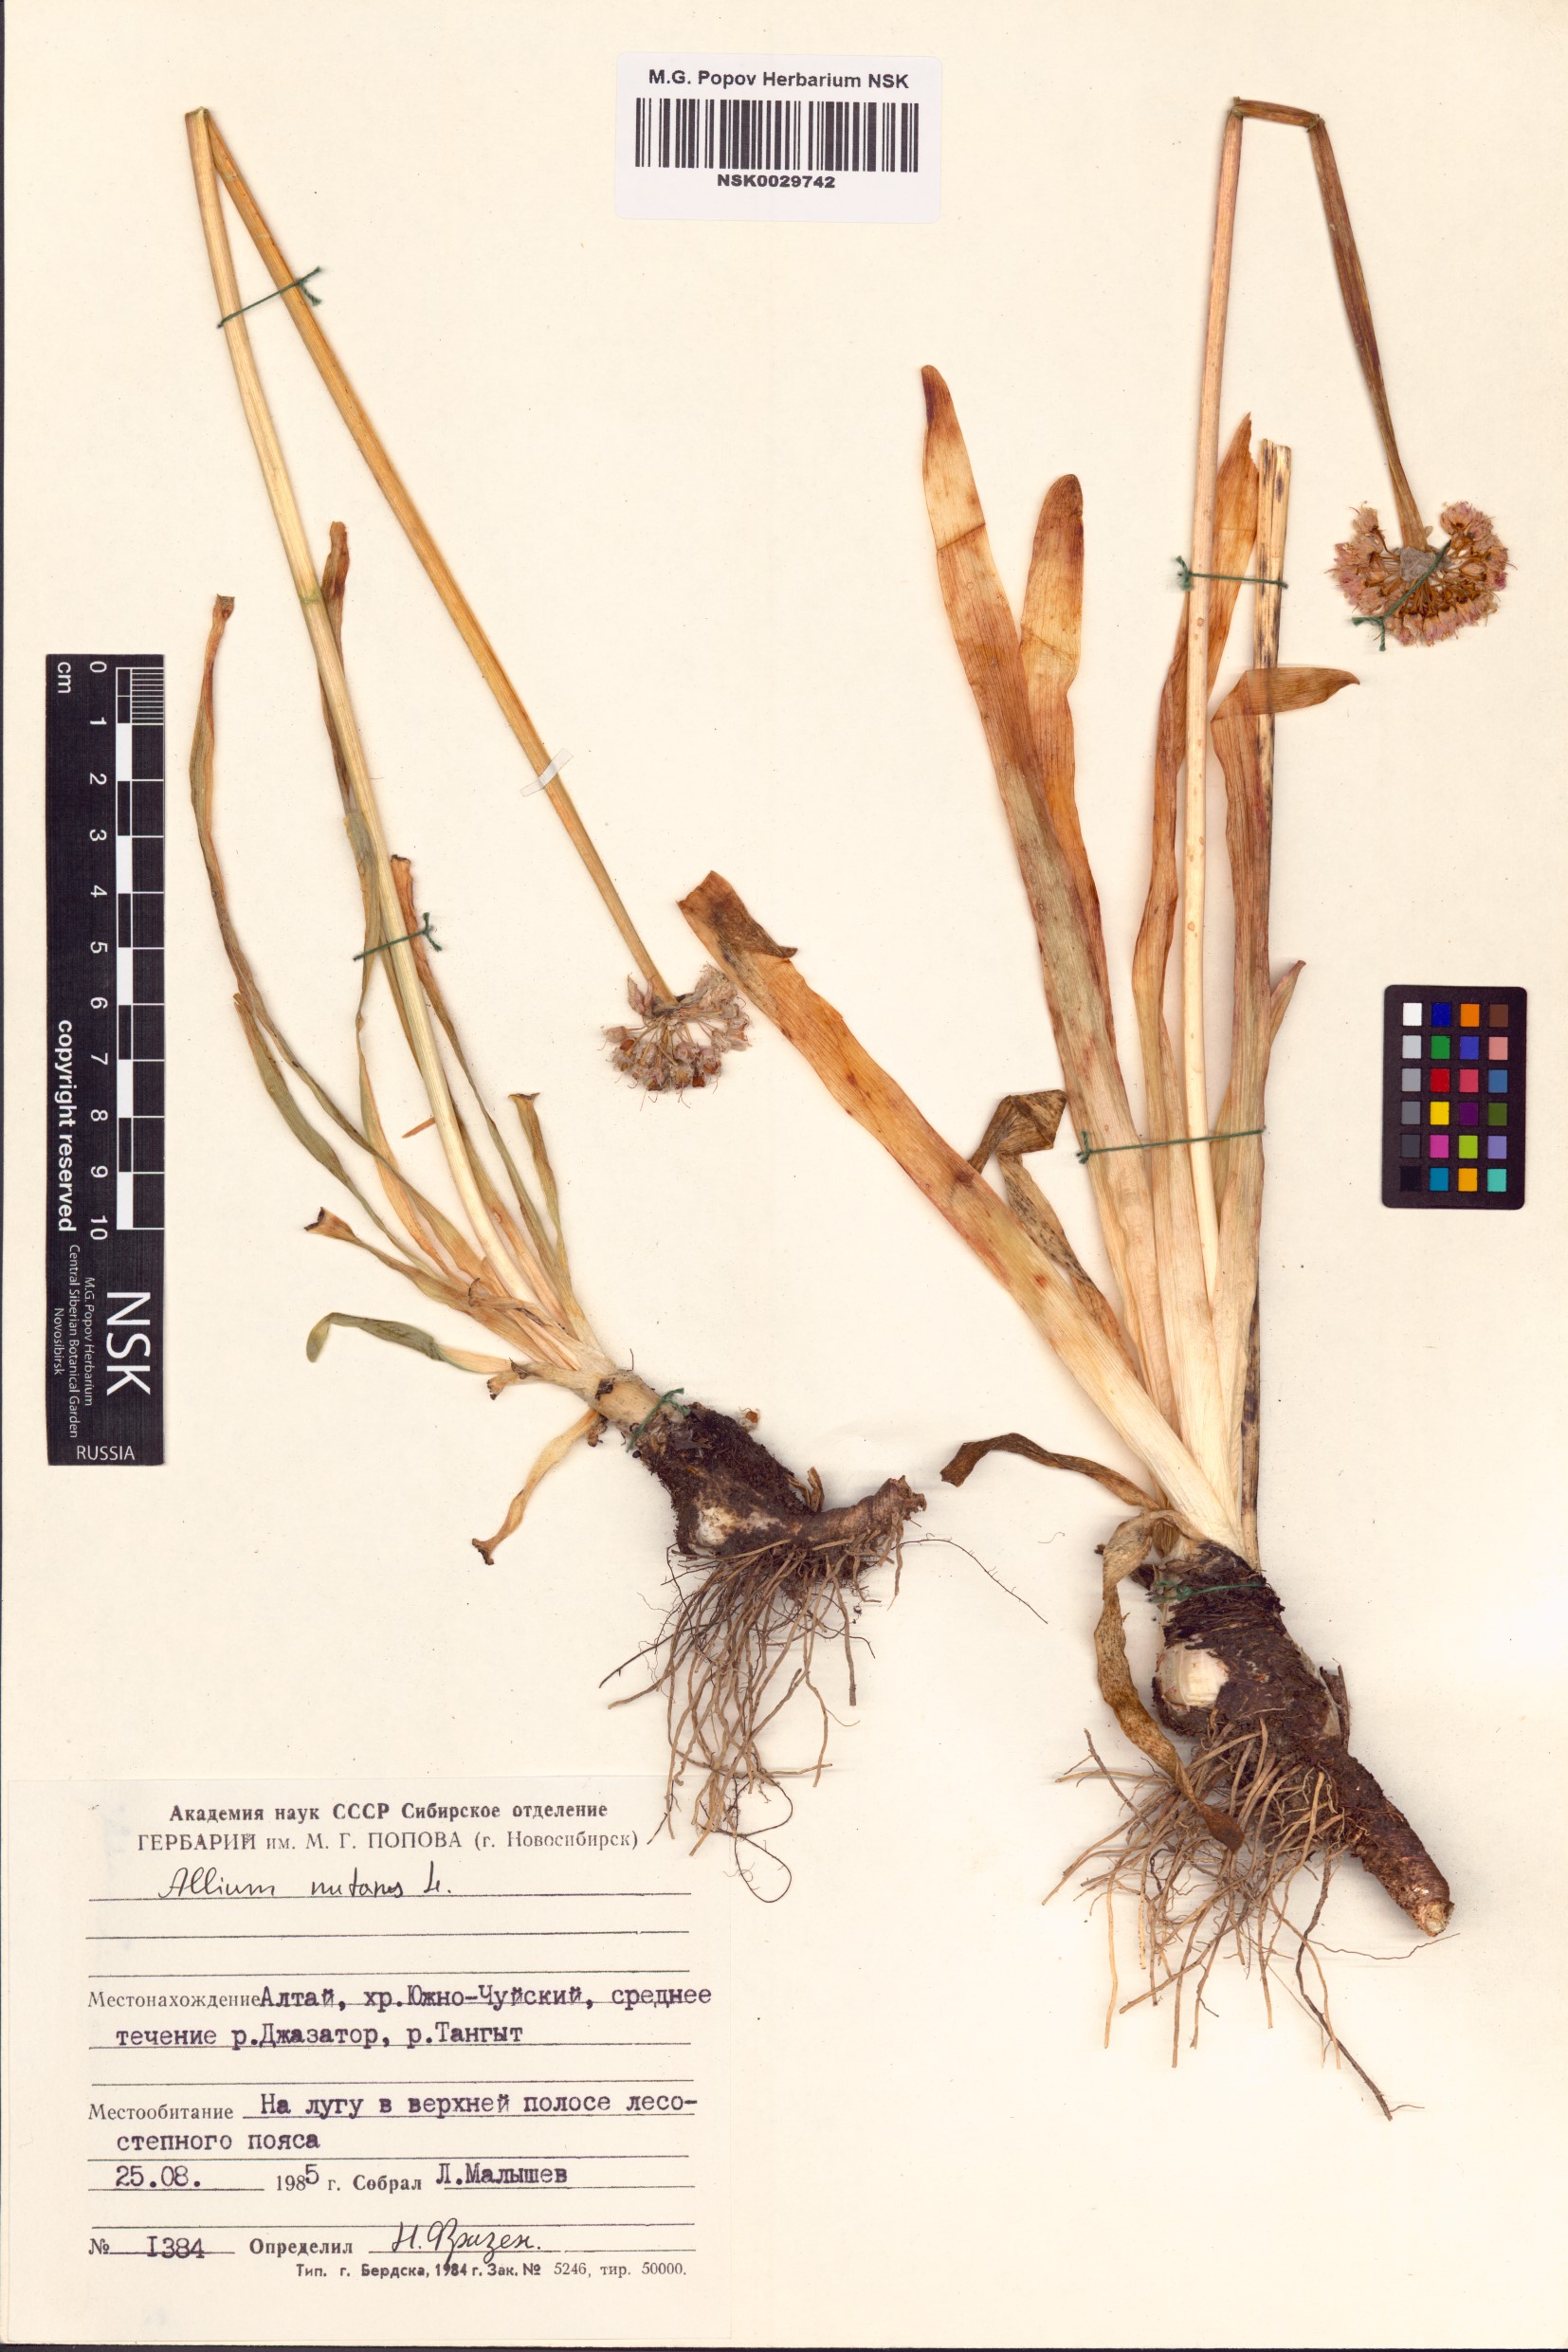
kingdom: Plantae
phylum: Tracheophyta
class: Liliopsida
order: Asparagales
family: Amaryllidaceae
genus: Allium
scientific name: Allium nutans
